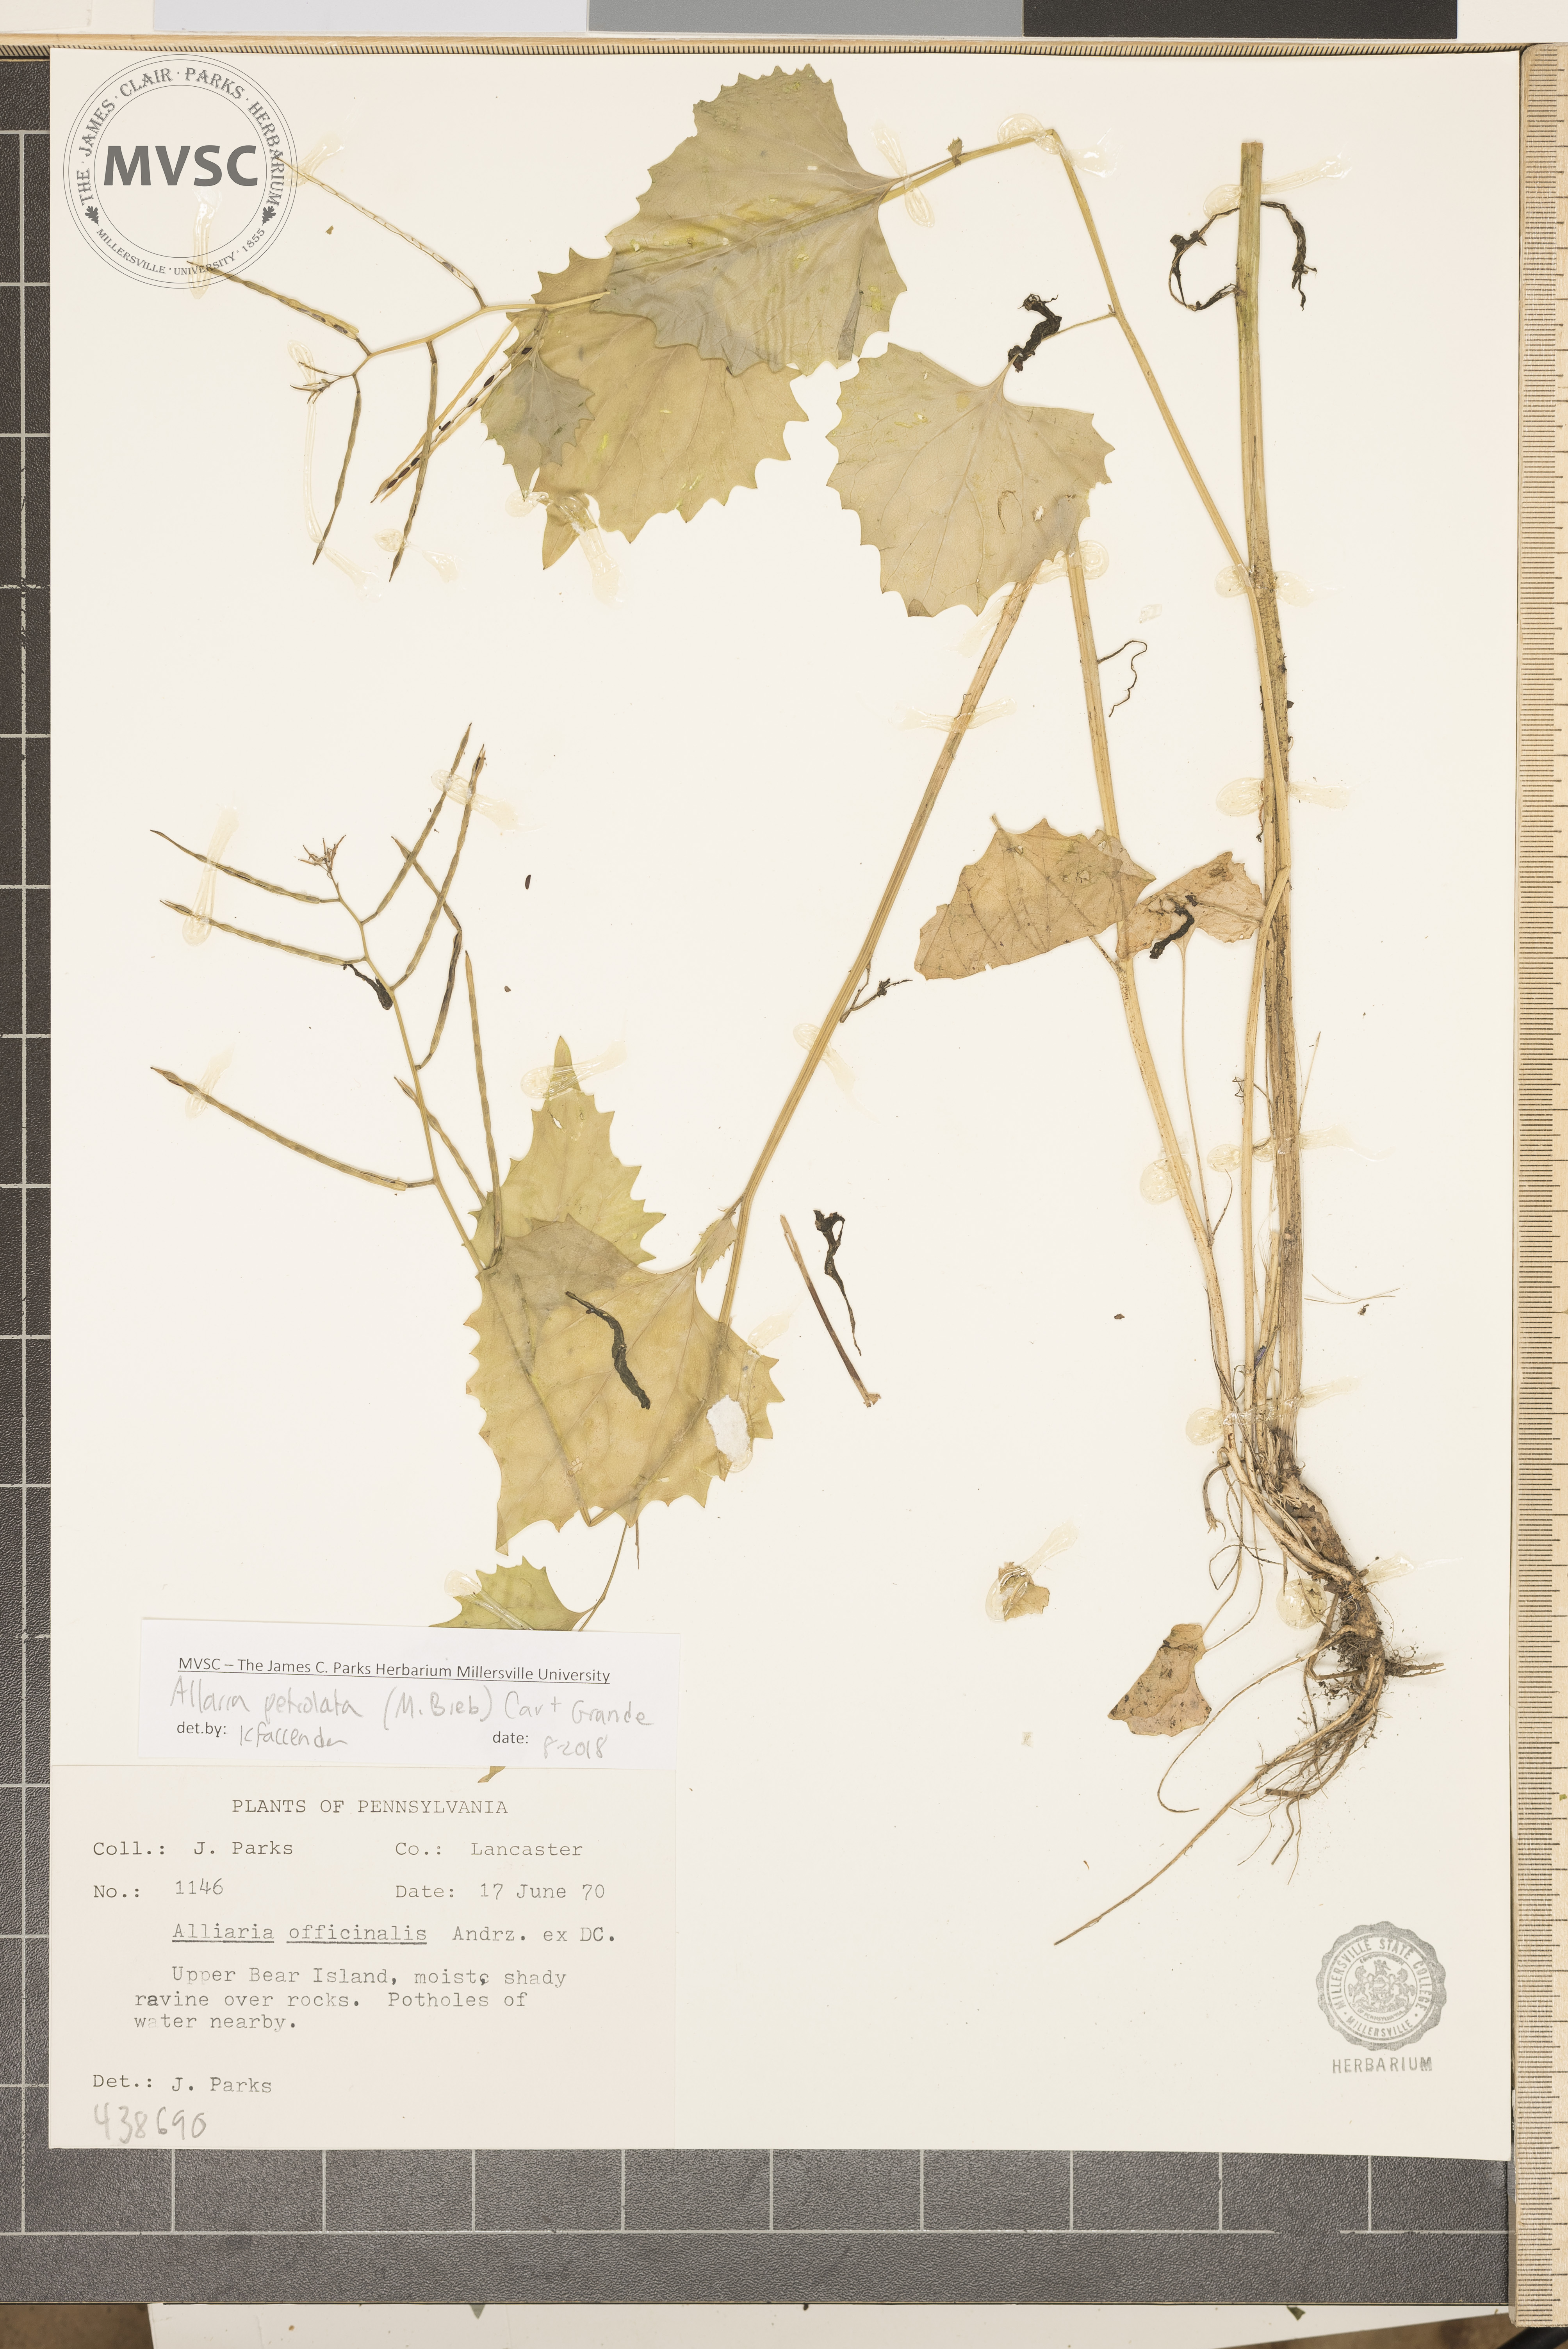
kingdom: Plantae
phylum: Tracheophyta
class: Magnoliopsida
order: Brassicales
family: Brassicaceae
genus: Alliaria
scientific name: Alliaria petiolata
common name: Garlic mustard
